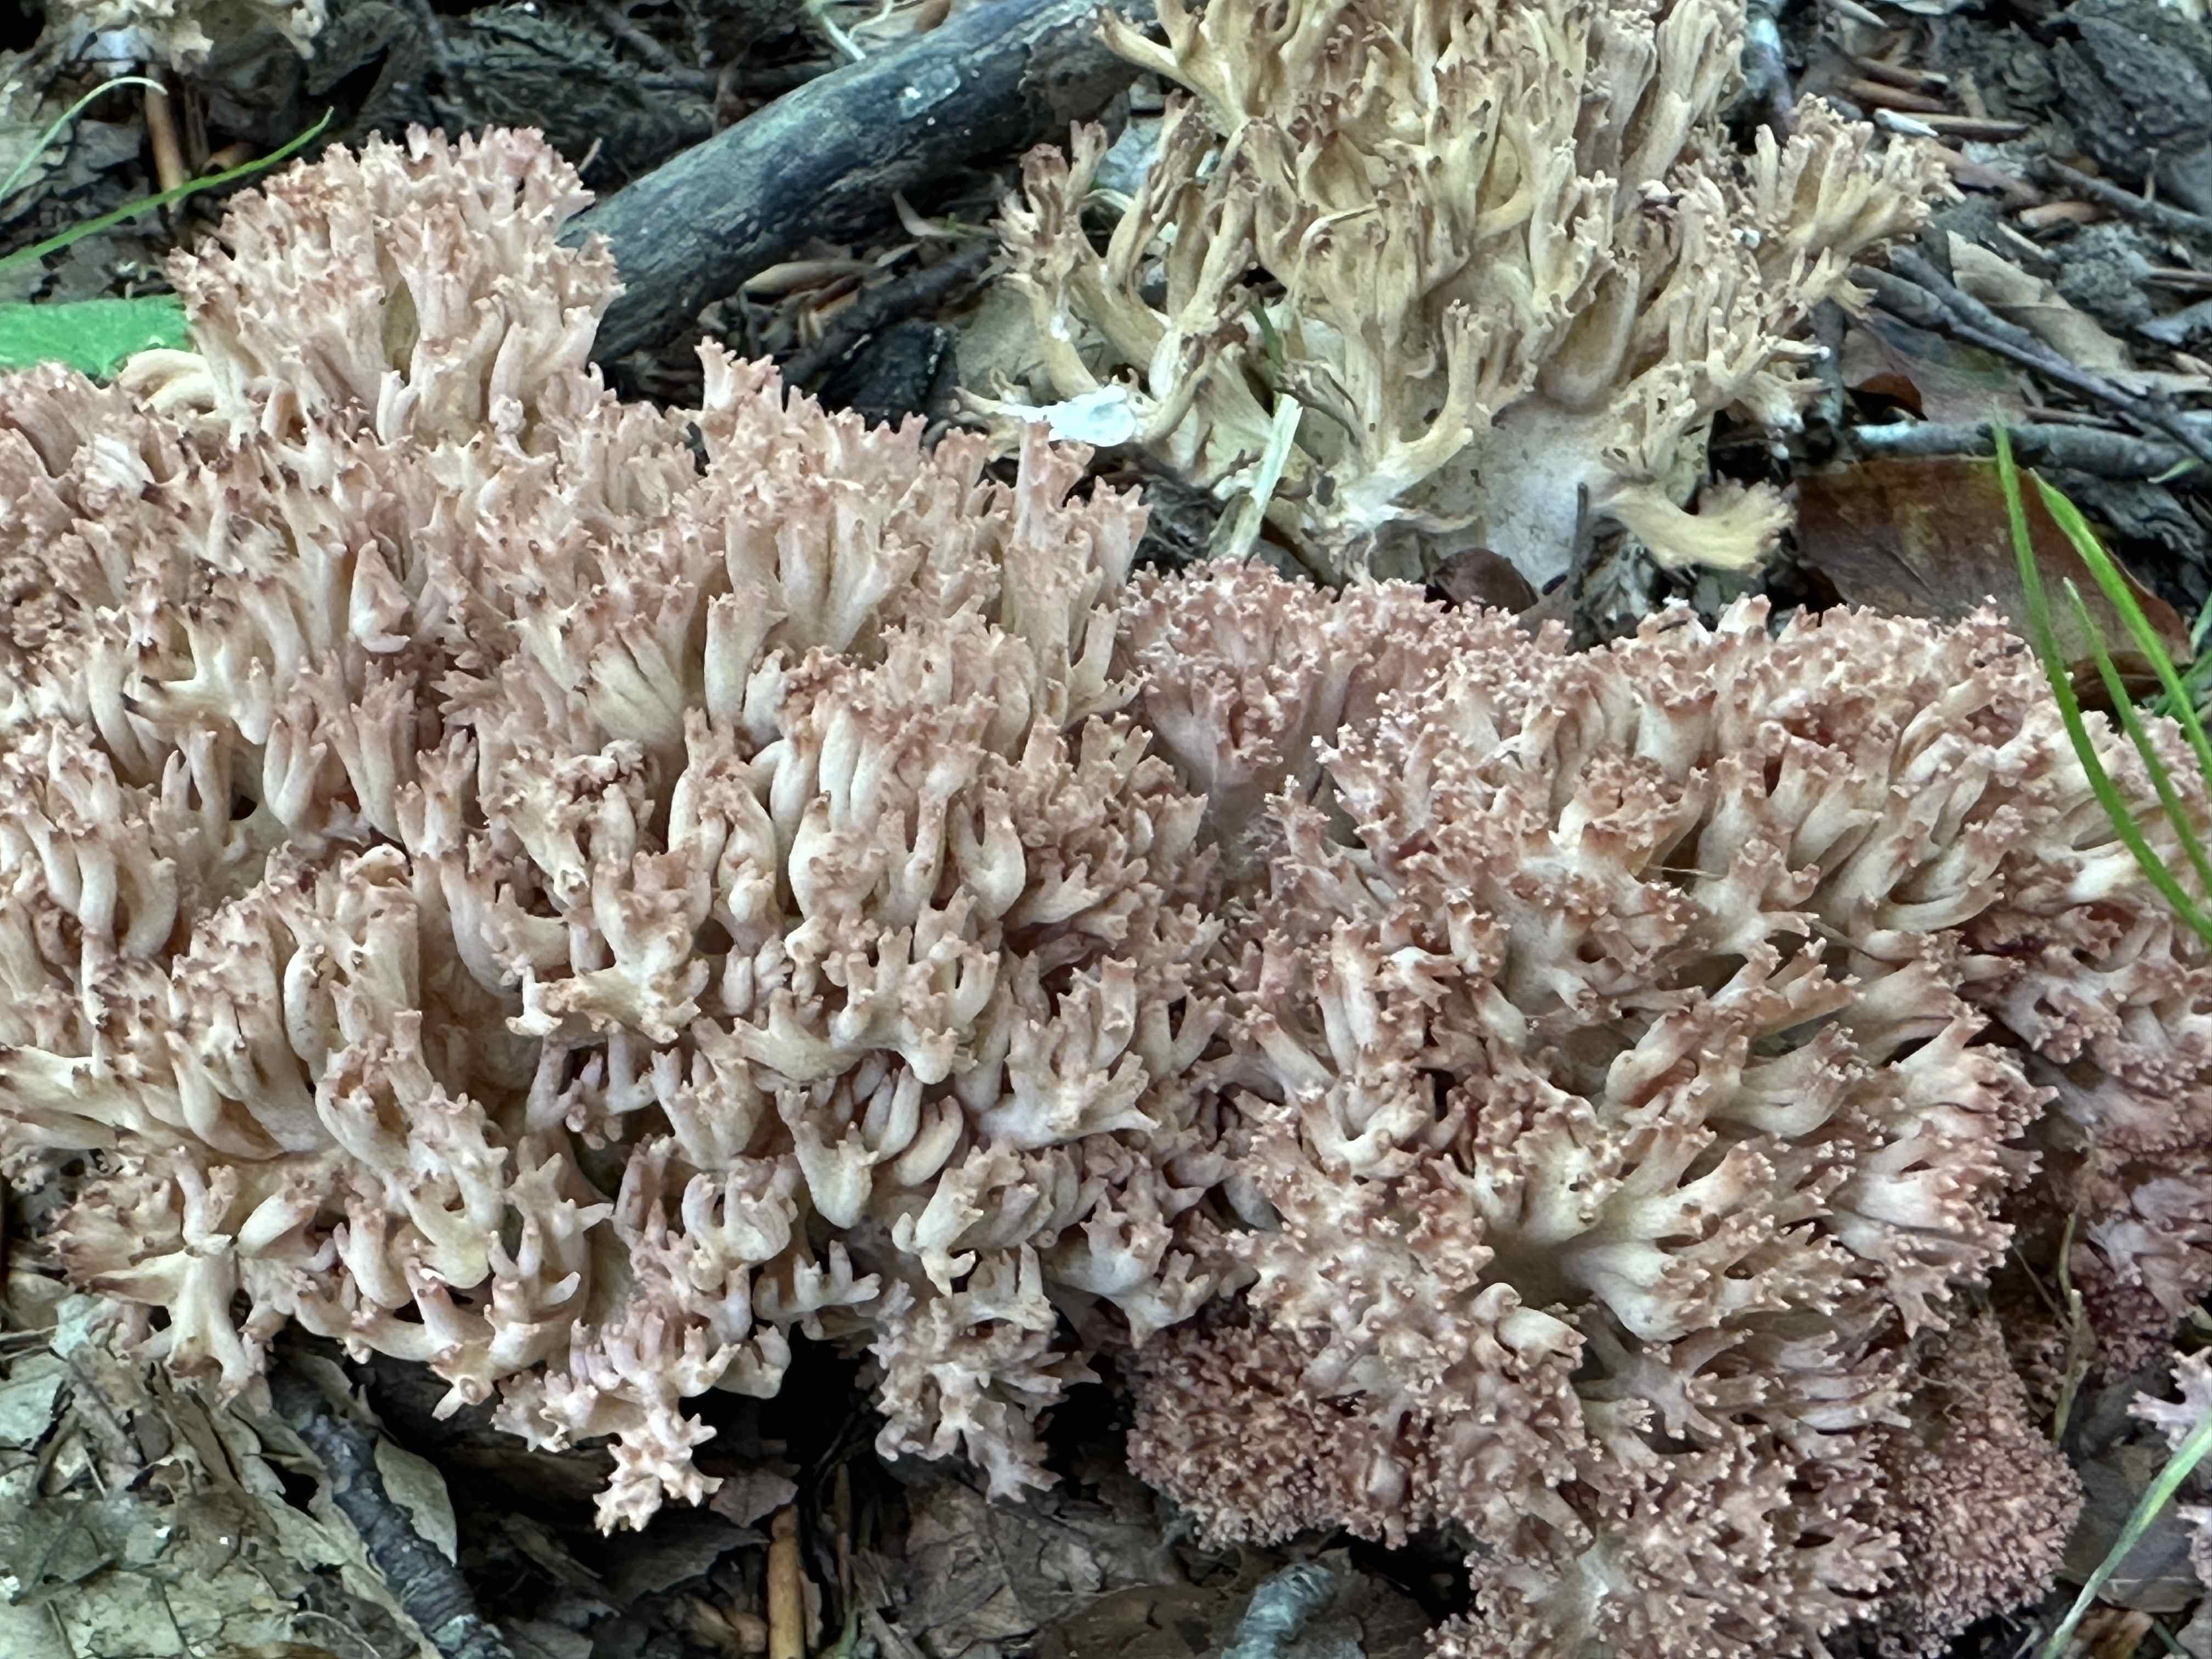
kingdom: Fungi
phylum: Basidiomycota
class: Agaricomycetes
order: Gomphales
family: Gomphaceae
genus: Ramaria
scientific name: Ramaria botrytis
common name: drue-koralsvamp
